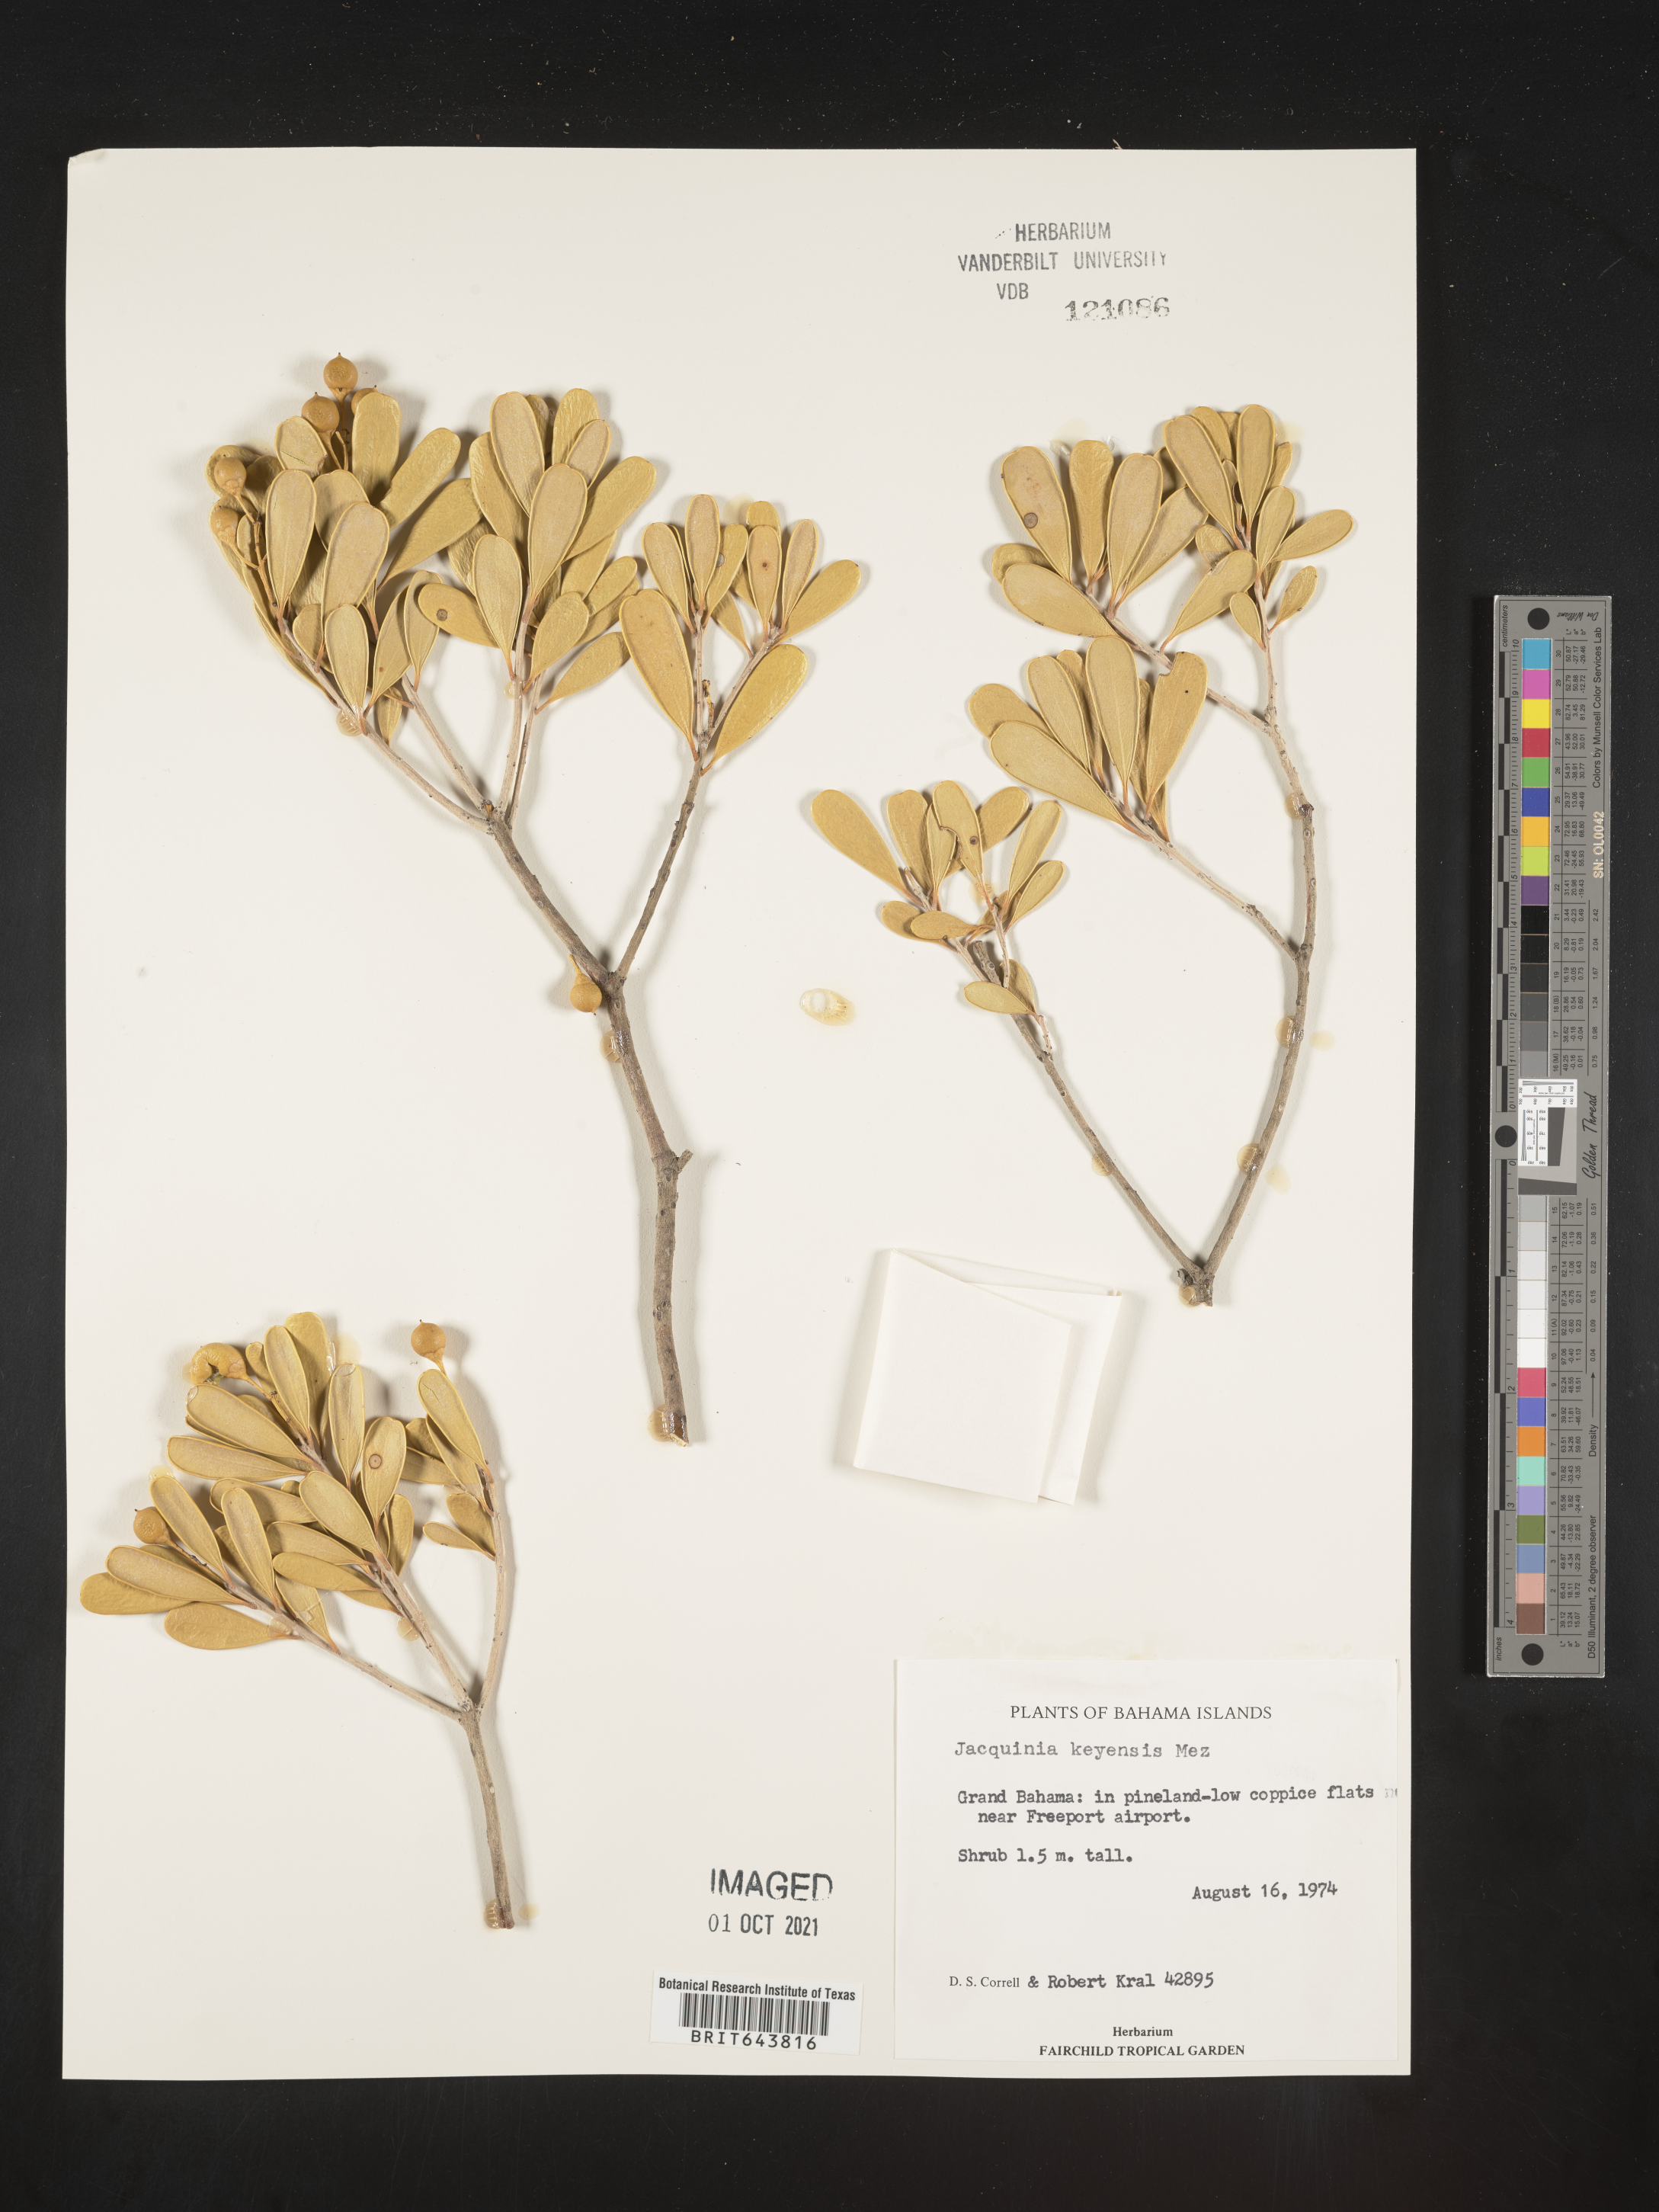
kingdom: Plantae
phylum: Tracheophyta
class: Magnoliopsida
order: Ericales
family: Primulaceae
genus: Jacquinia
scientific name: Jacquinia
